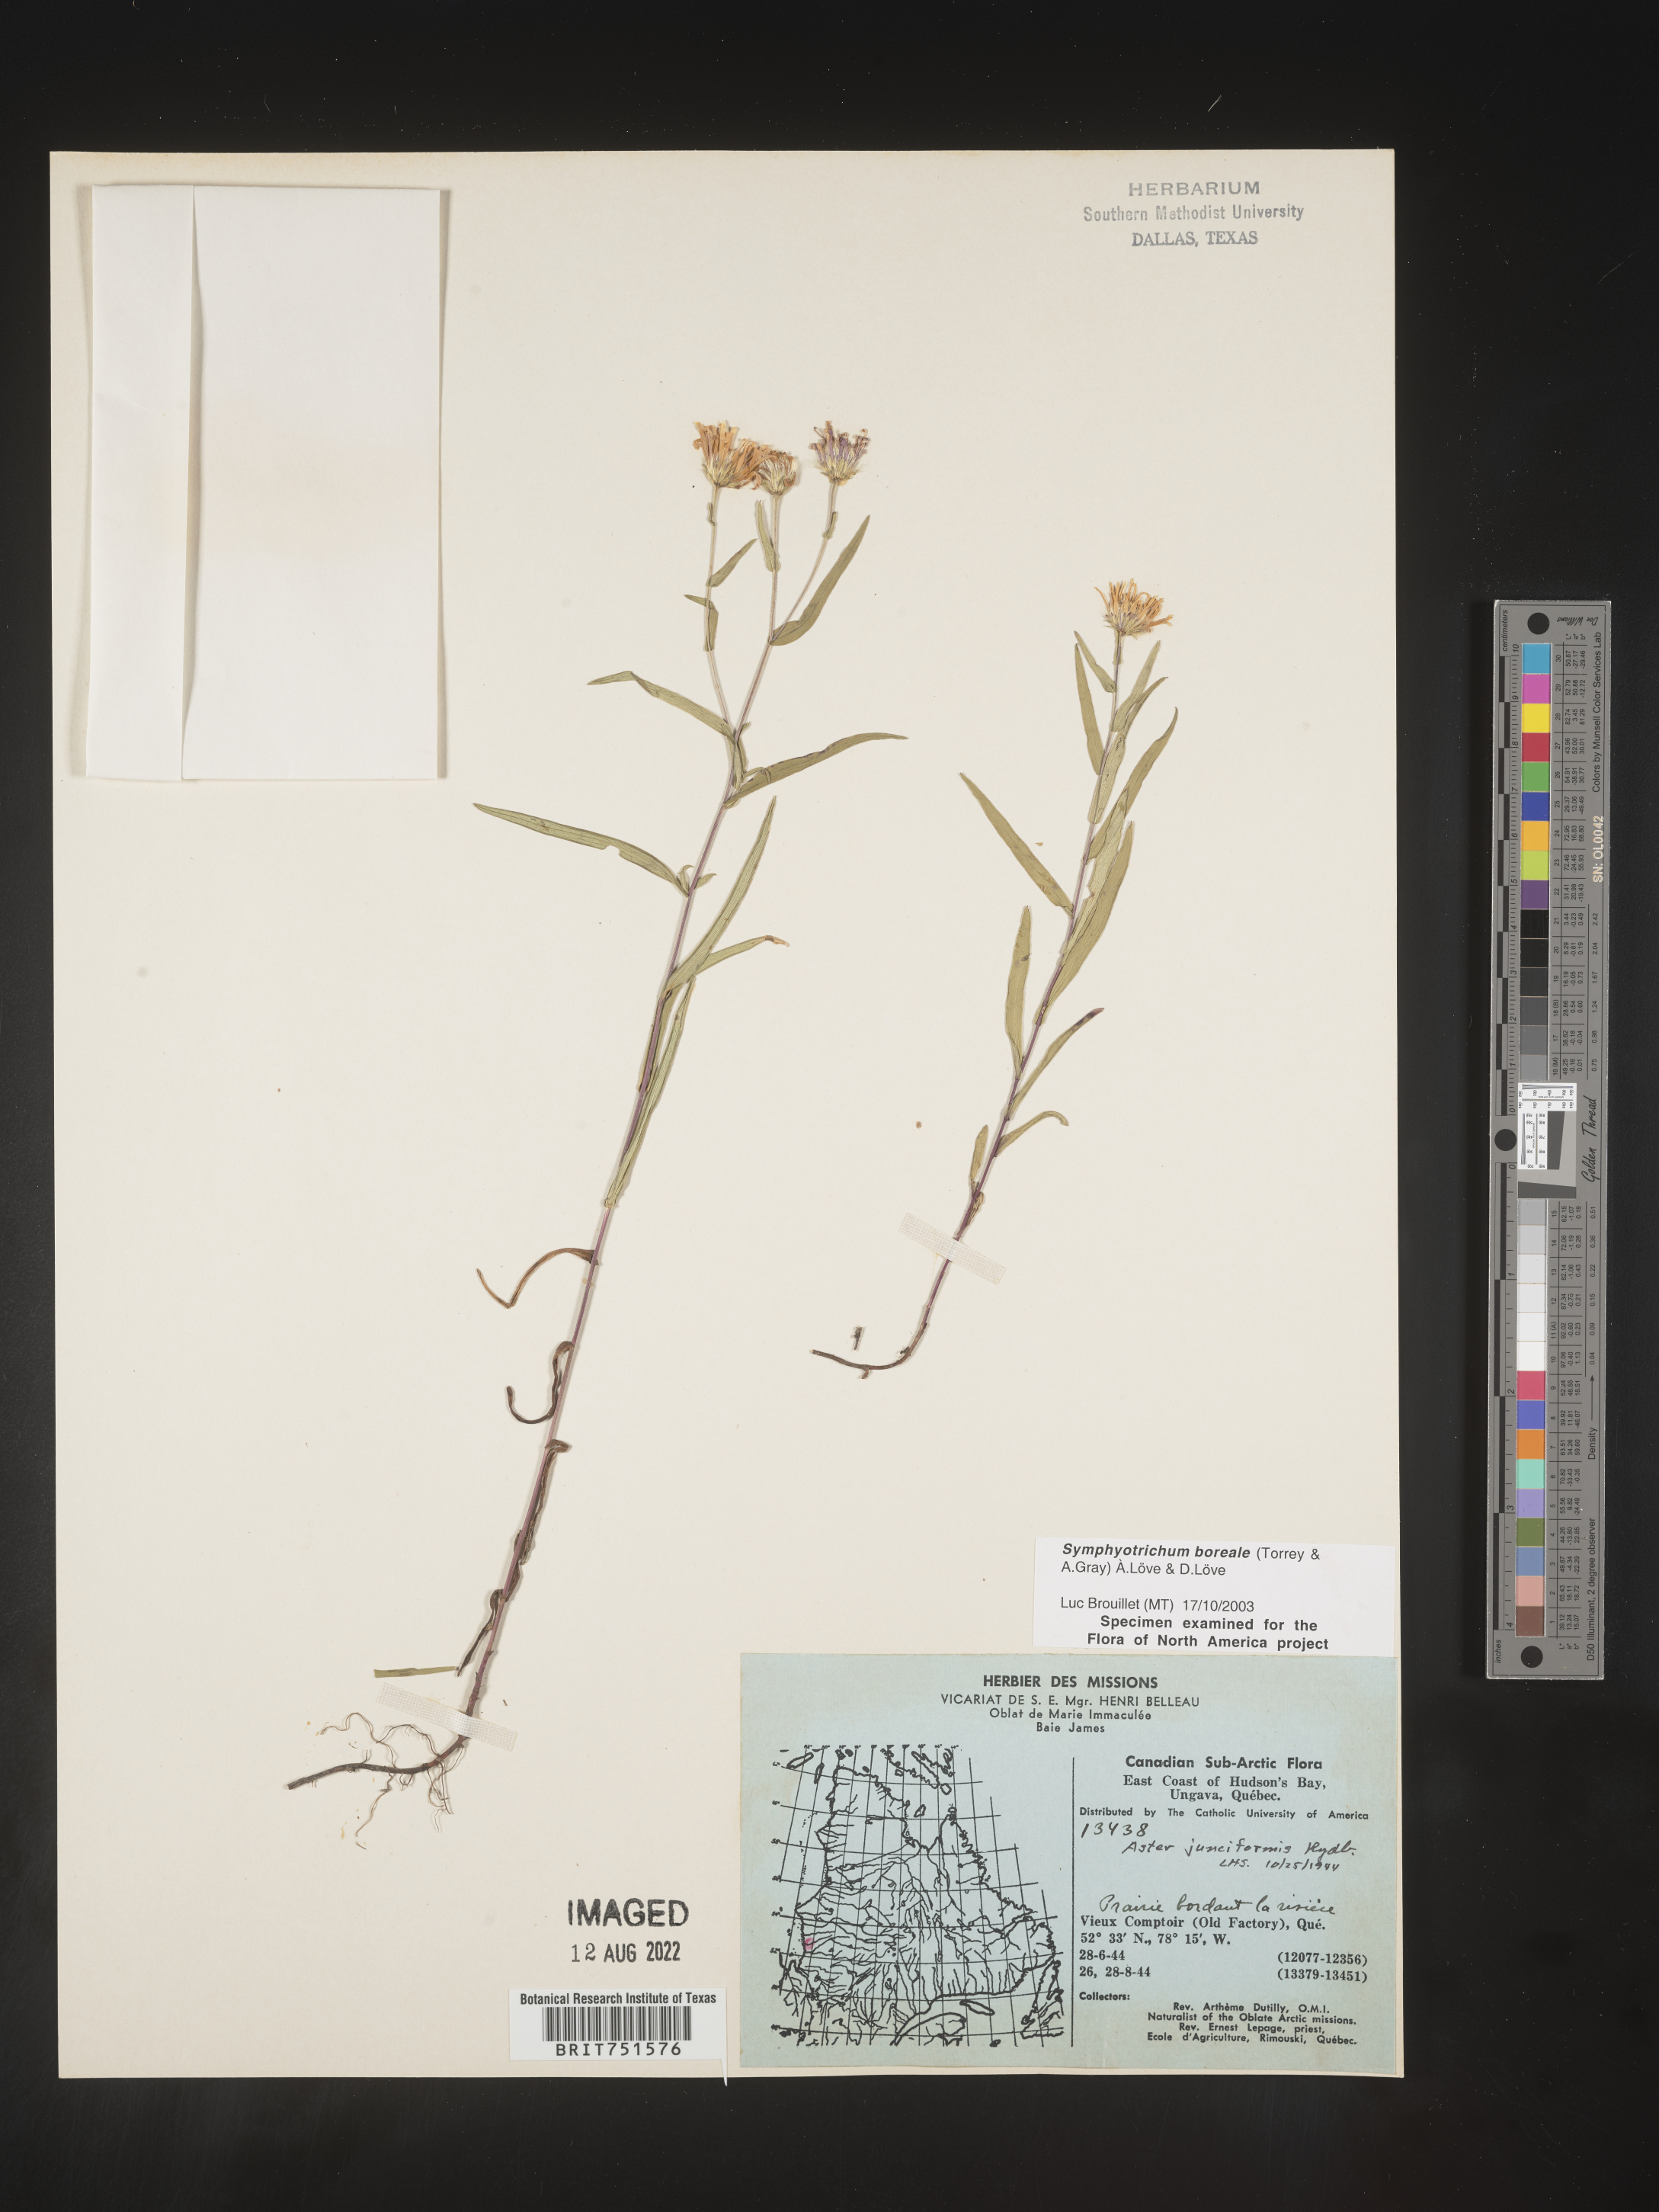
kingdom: Plantae
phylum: Tracheophyta
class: Magnoliopsida
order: Asterales
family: Asteraceae
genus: Symphyotrichum
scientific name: Symphyotrichum boreale
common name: Northern bog aster
